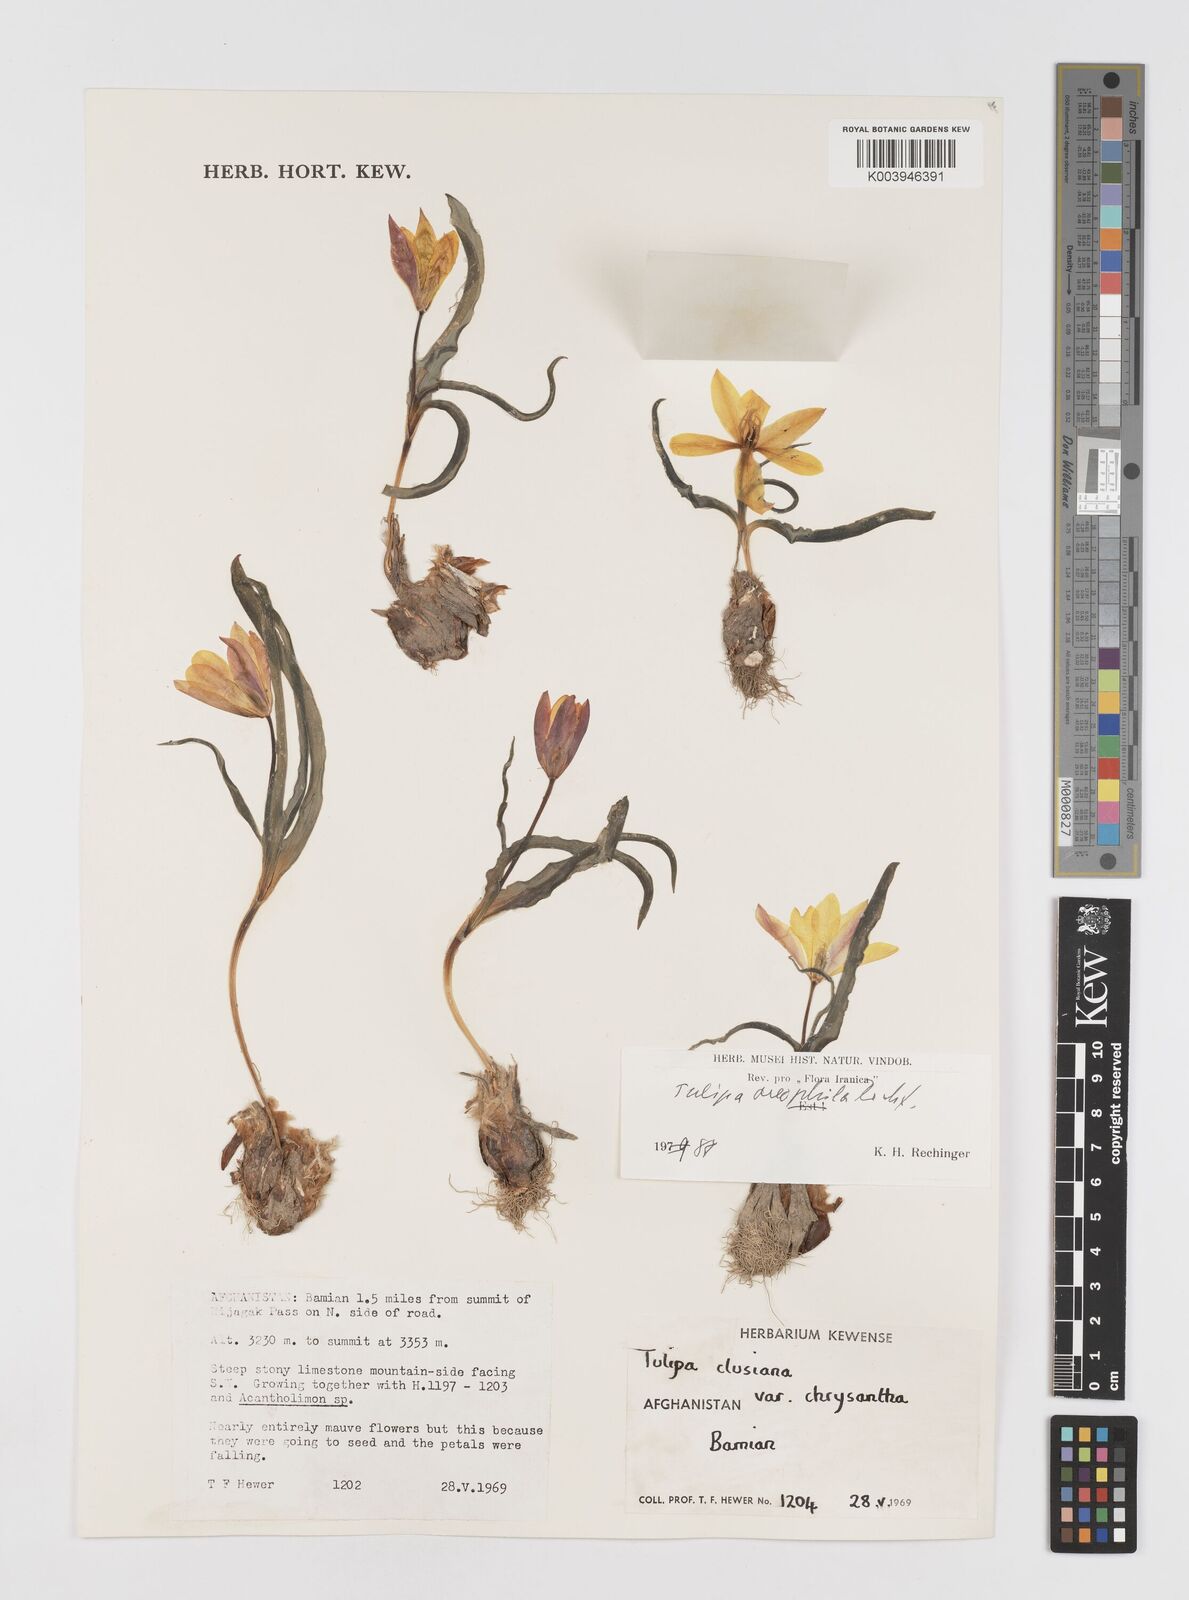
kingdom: Plantae
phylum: Tracheophyta
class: Liliopsida
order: Liliales
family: Liliaceae
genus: Tulipa
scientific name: Tulipa clusiana
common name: Lady tulip
